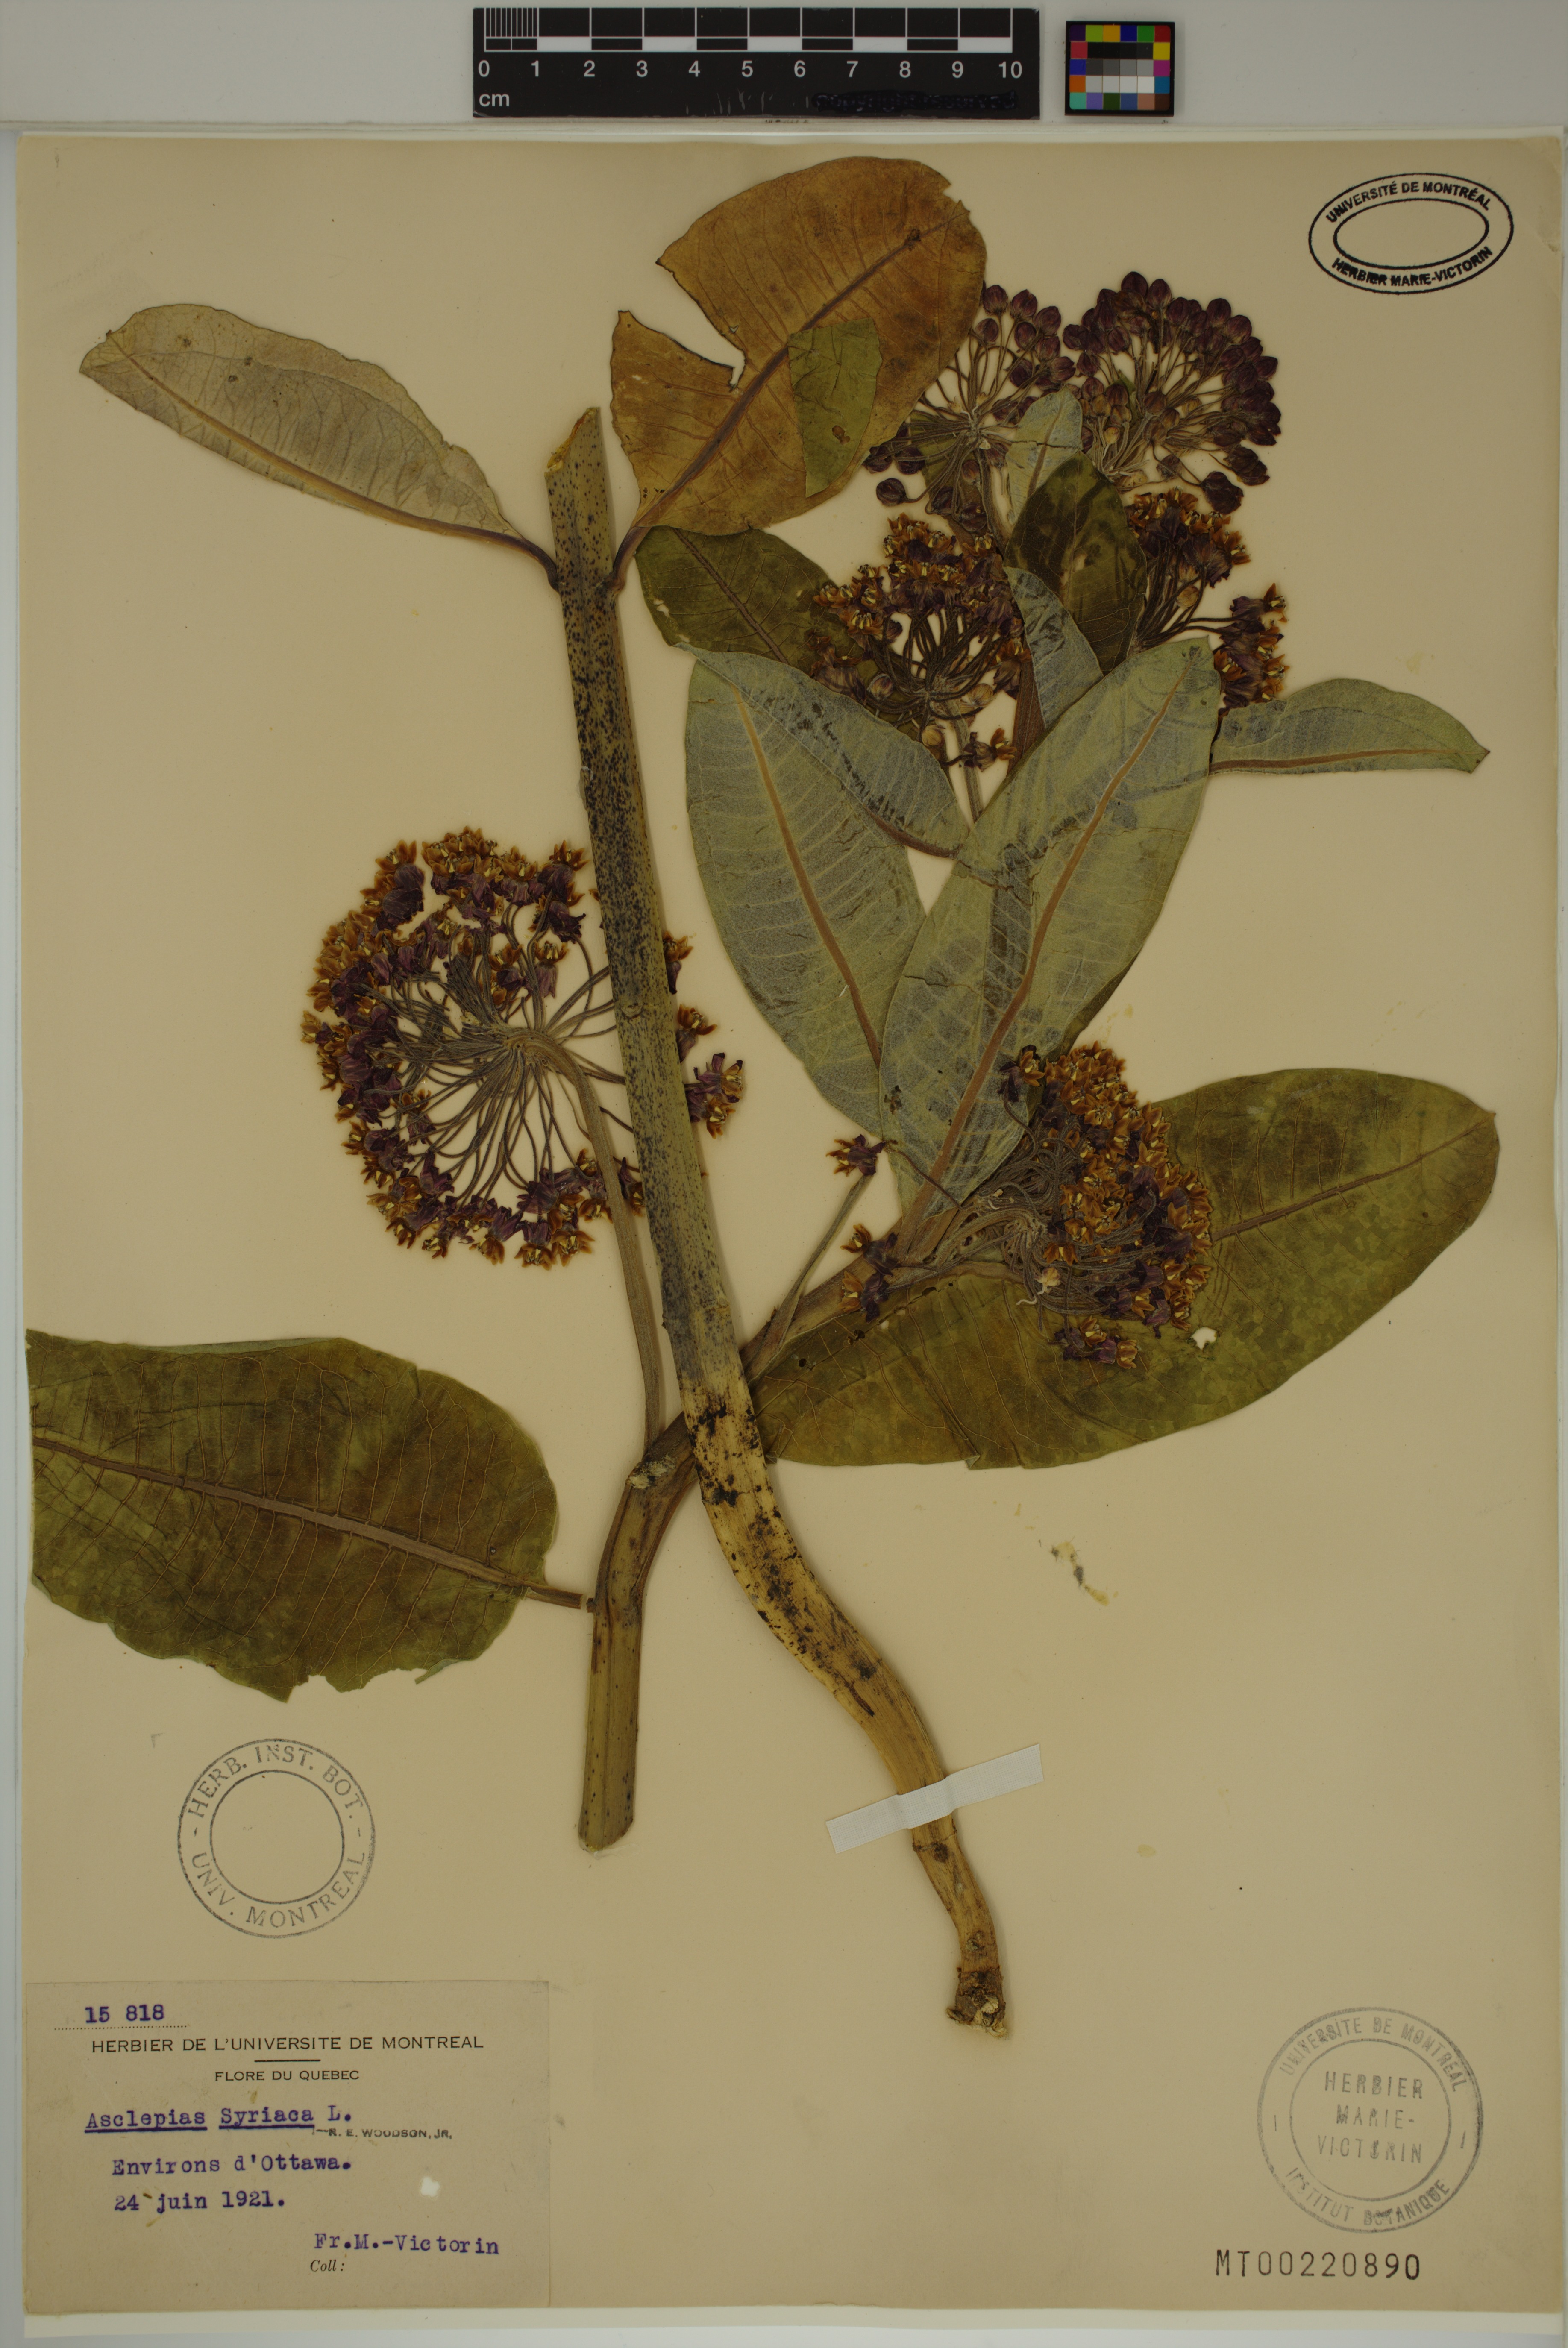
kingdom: Plantae
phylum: Tracheophyta
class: Magnoliopsida
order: Gentianales
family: Apocynaceae
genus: Asclepias
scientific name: Asclepias syriaca
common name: Common milkweed
